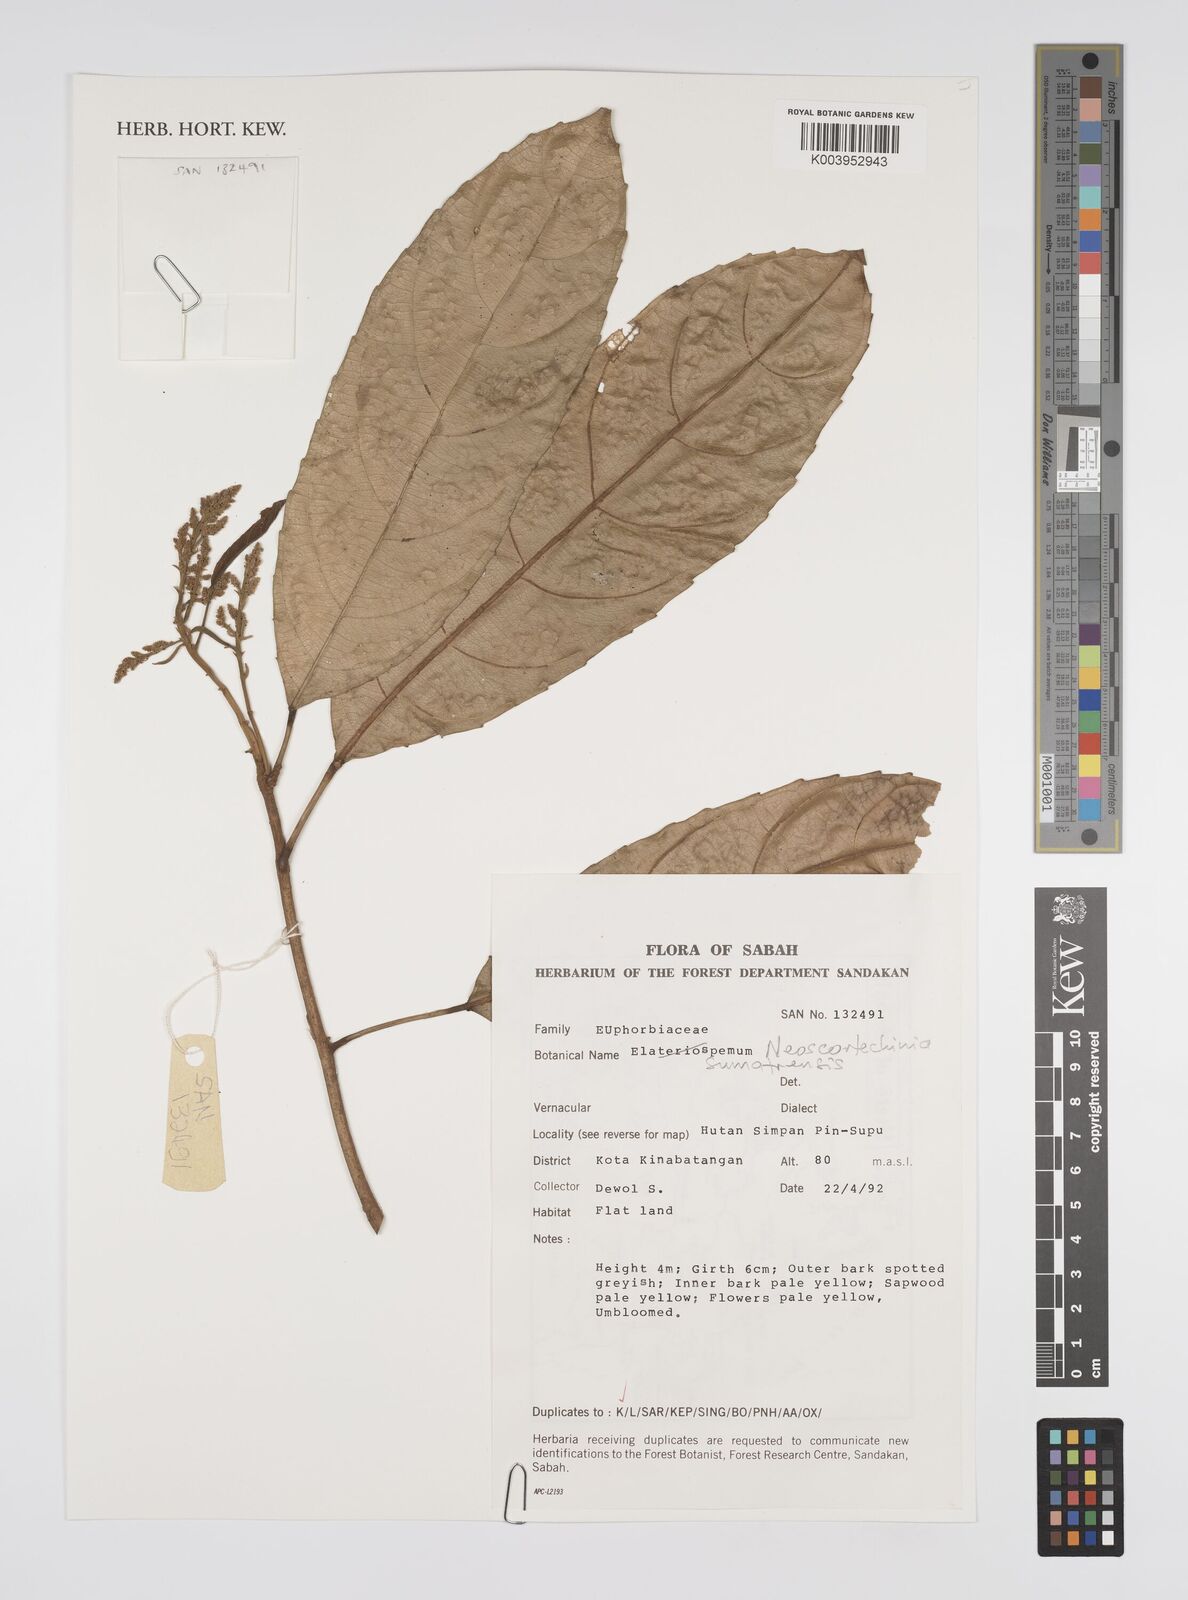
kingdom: Plantae
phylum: Tracheophyta
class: Magnoliopsida
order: Malpighiales
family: Euphorbiaceae
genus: Neoscortechinia
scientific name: Neoscortechinia sumatrensis
